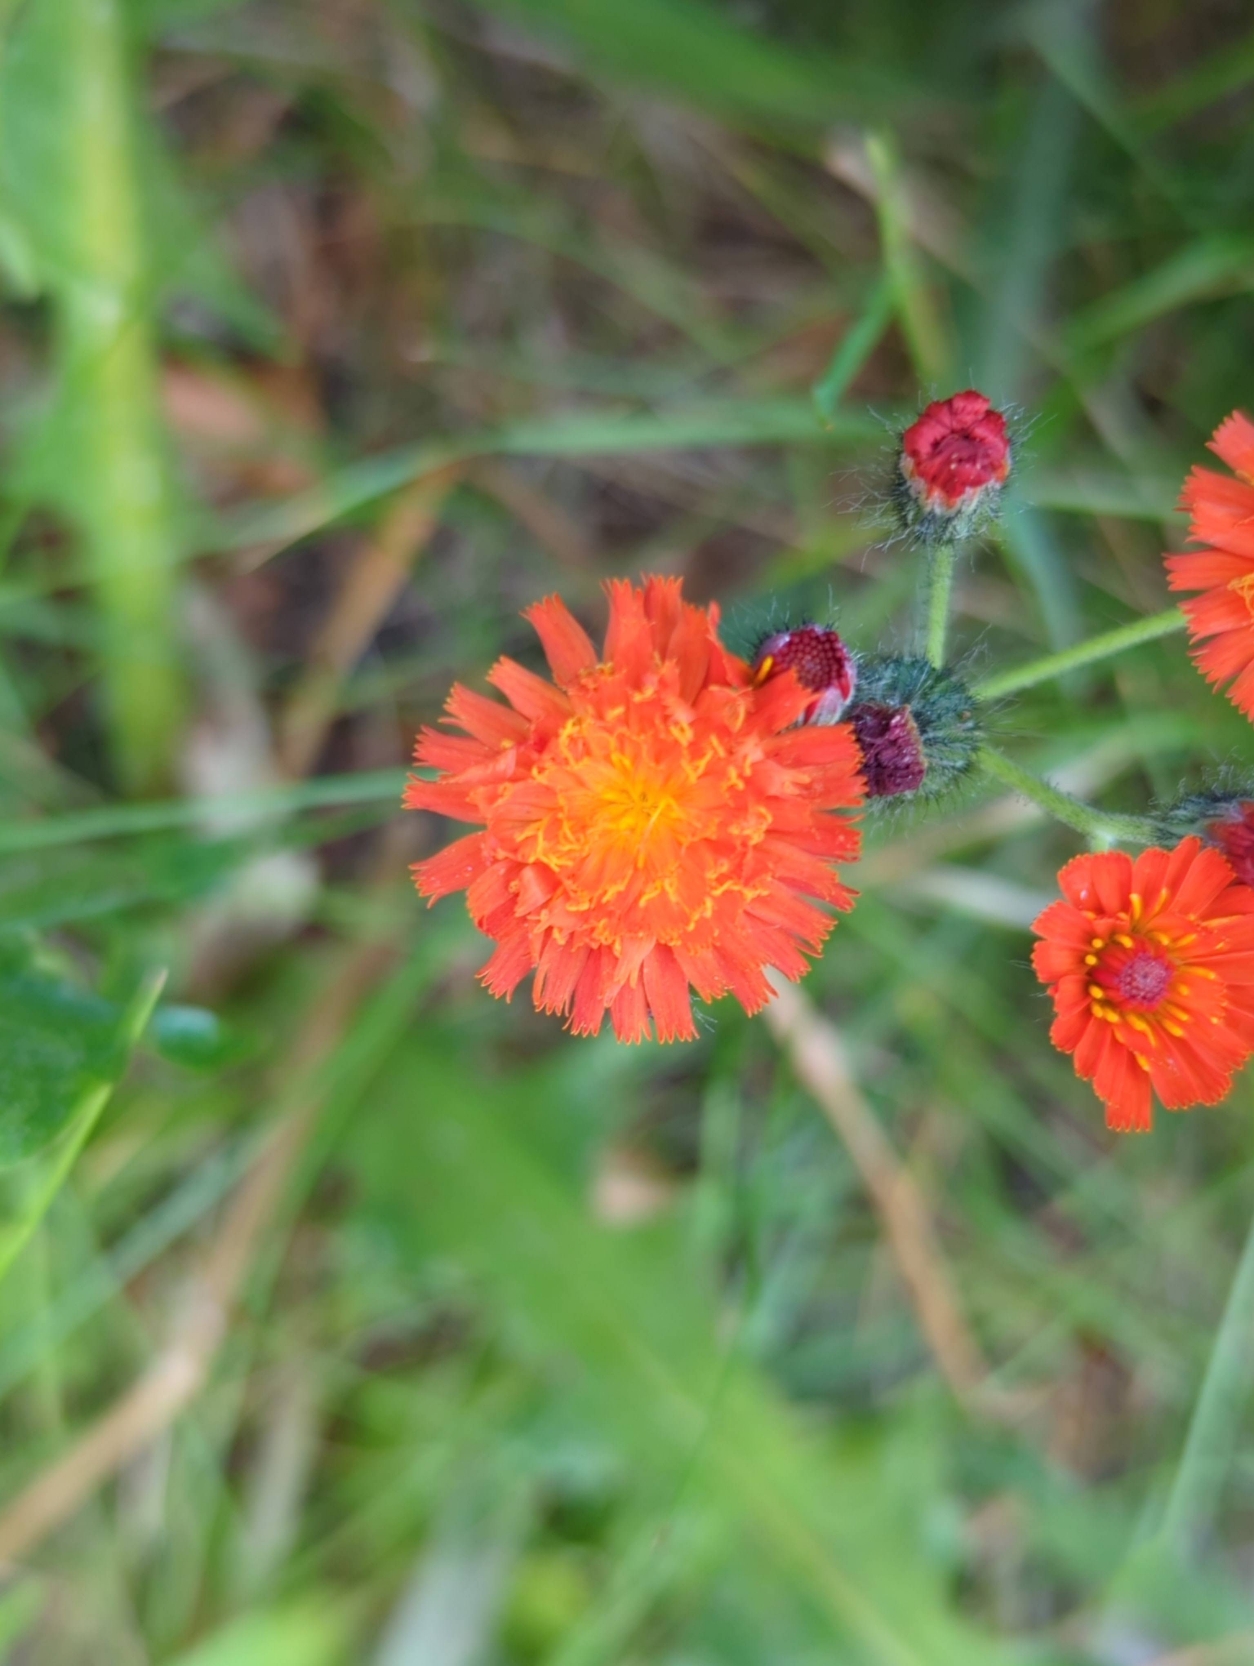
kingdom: Plantae
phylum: Tracheophyta
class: Magnoliopsida
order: Asterales
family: Asteraceae
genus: Pilosella
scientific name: Pilosella aurantiaca
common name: Pomerans-høgeurt
